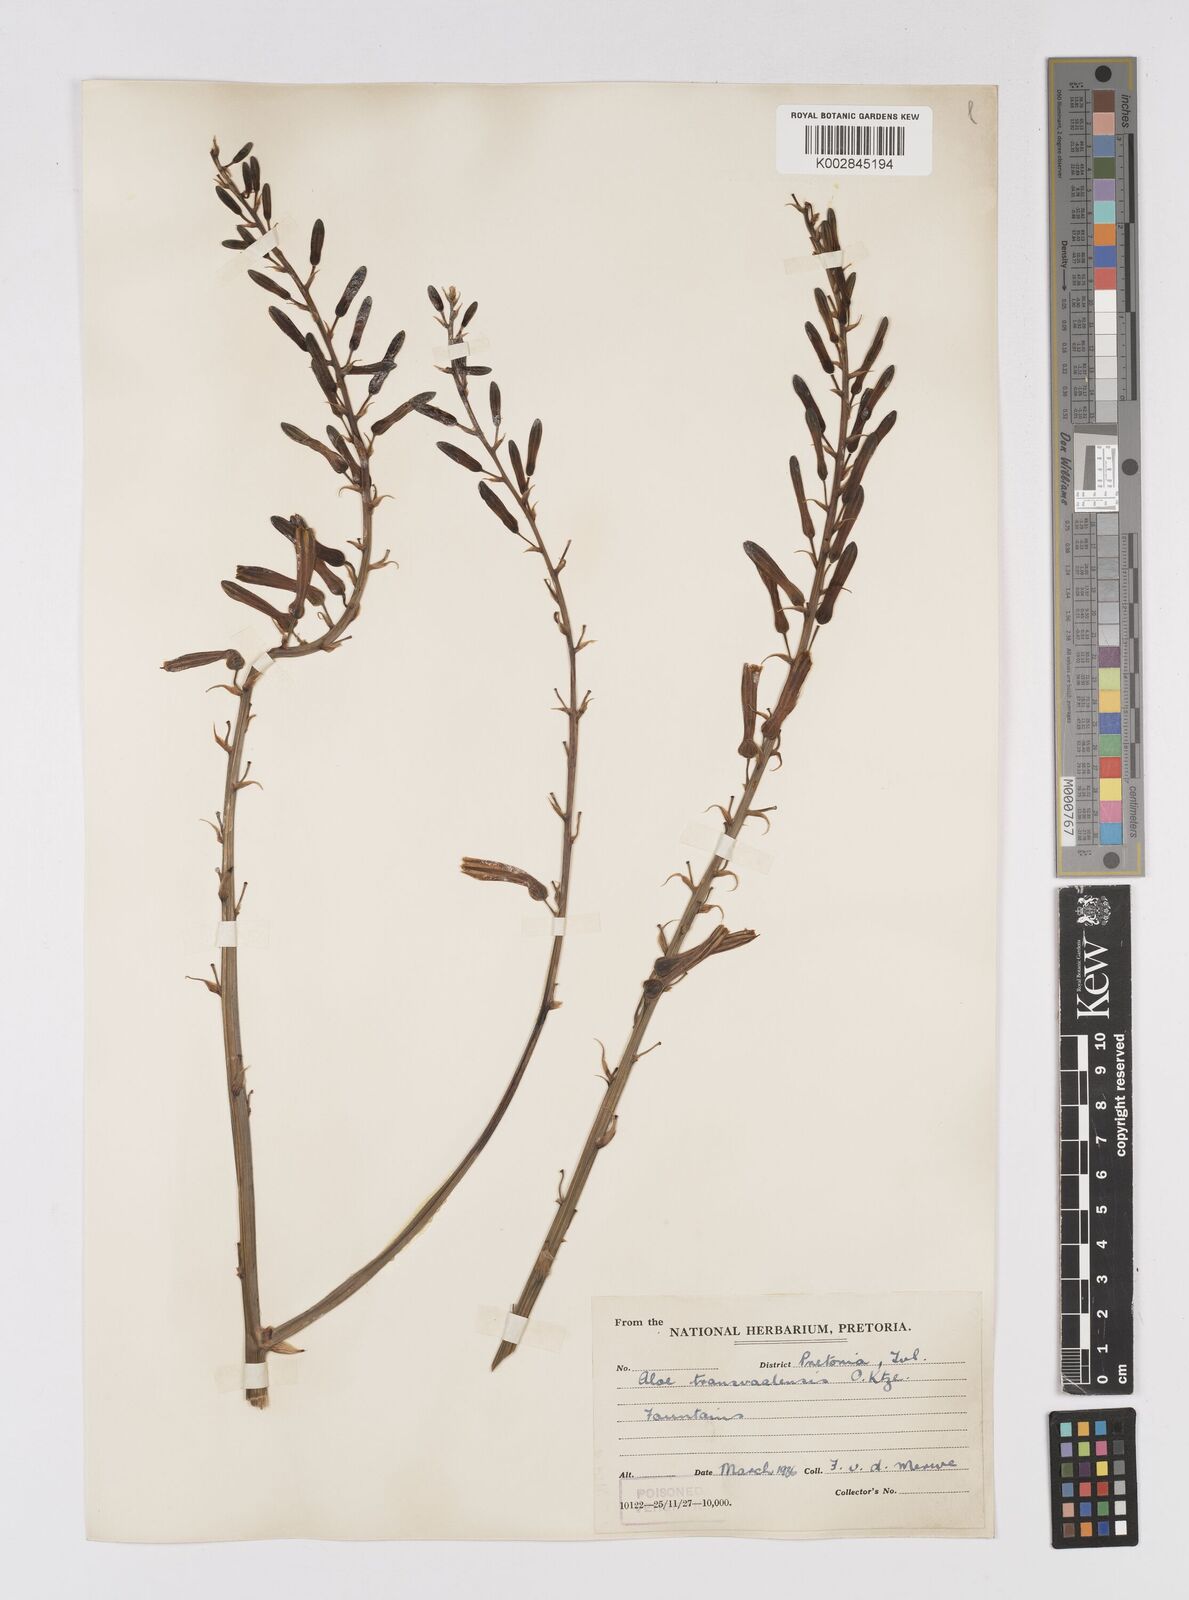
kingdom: Plantae
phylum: Tracheophyta
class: Liliopsida
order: Asparagales
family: Asphodelaceae
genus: Aloe
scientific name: Aloe transvaalensis
